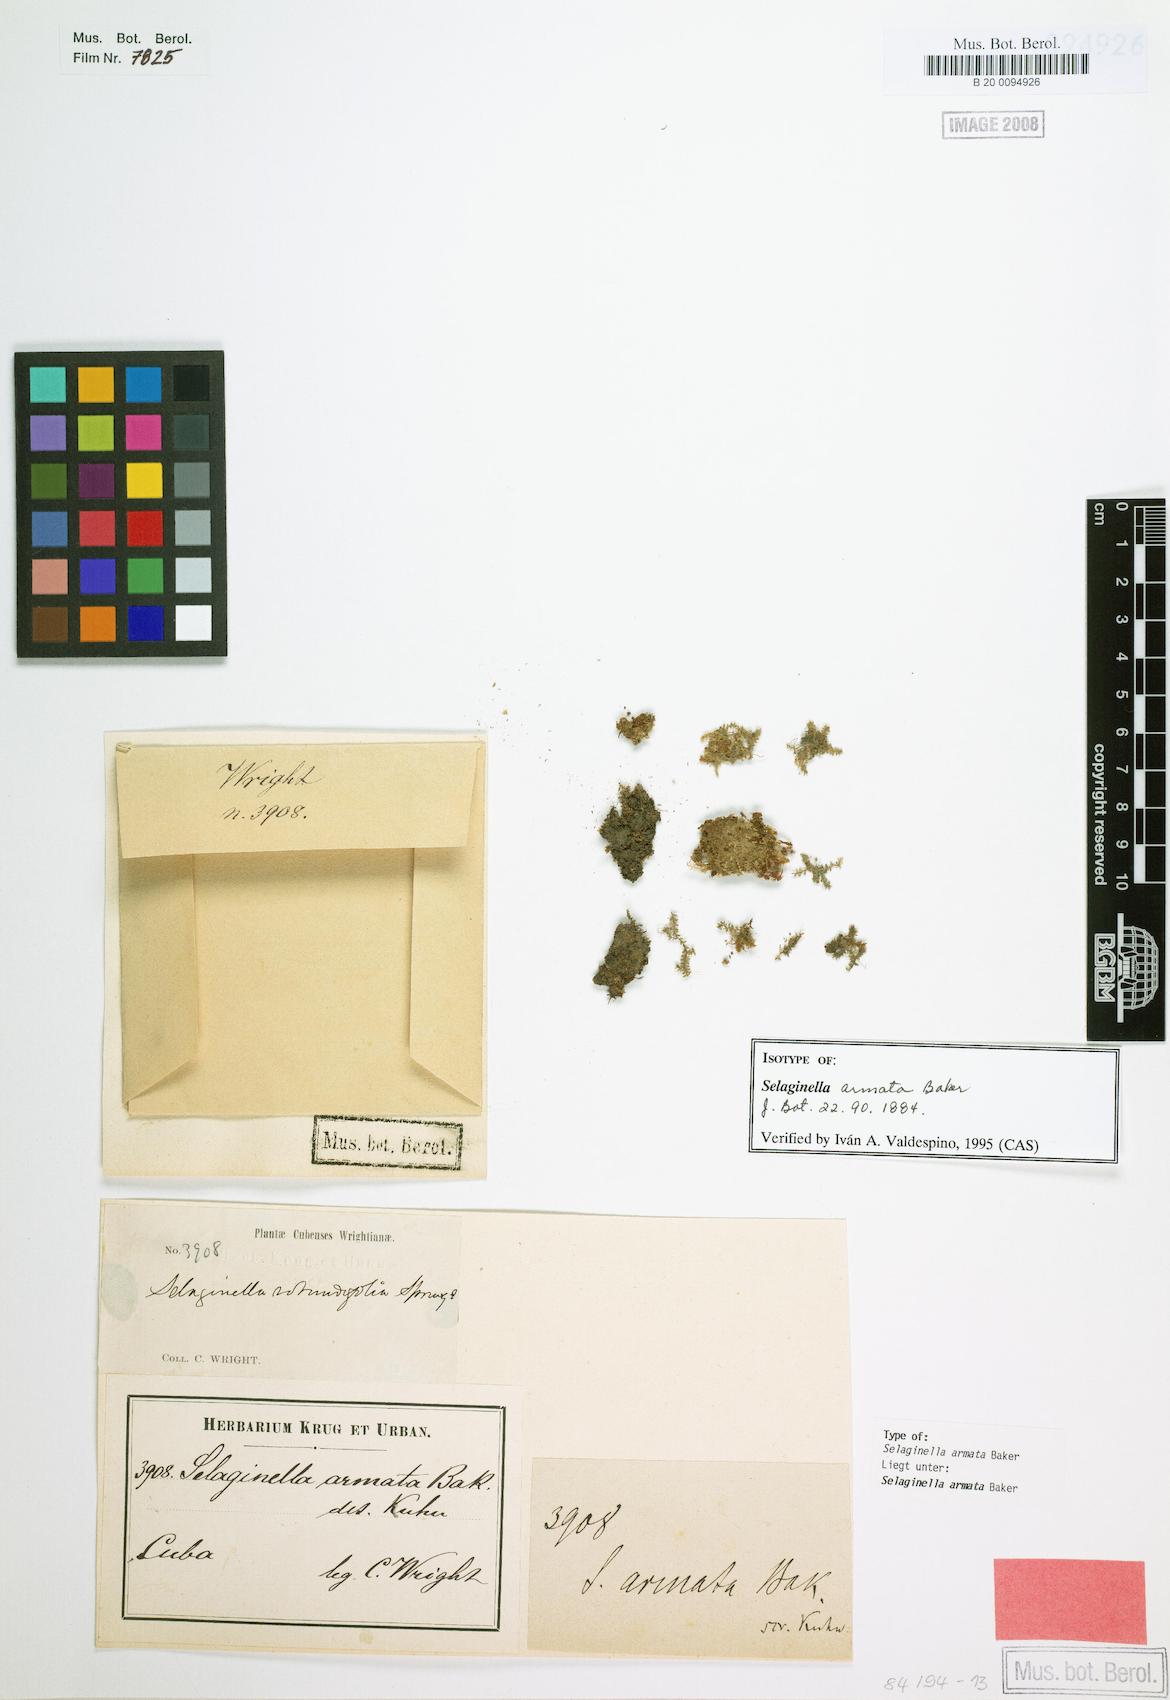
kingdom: Plantae
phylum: Tracheophyta
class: Lycopodiopsida
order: Selaginellales
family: Selaginellaceae
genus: Selaginella
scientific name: Selaginella armata
